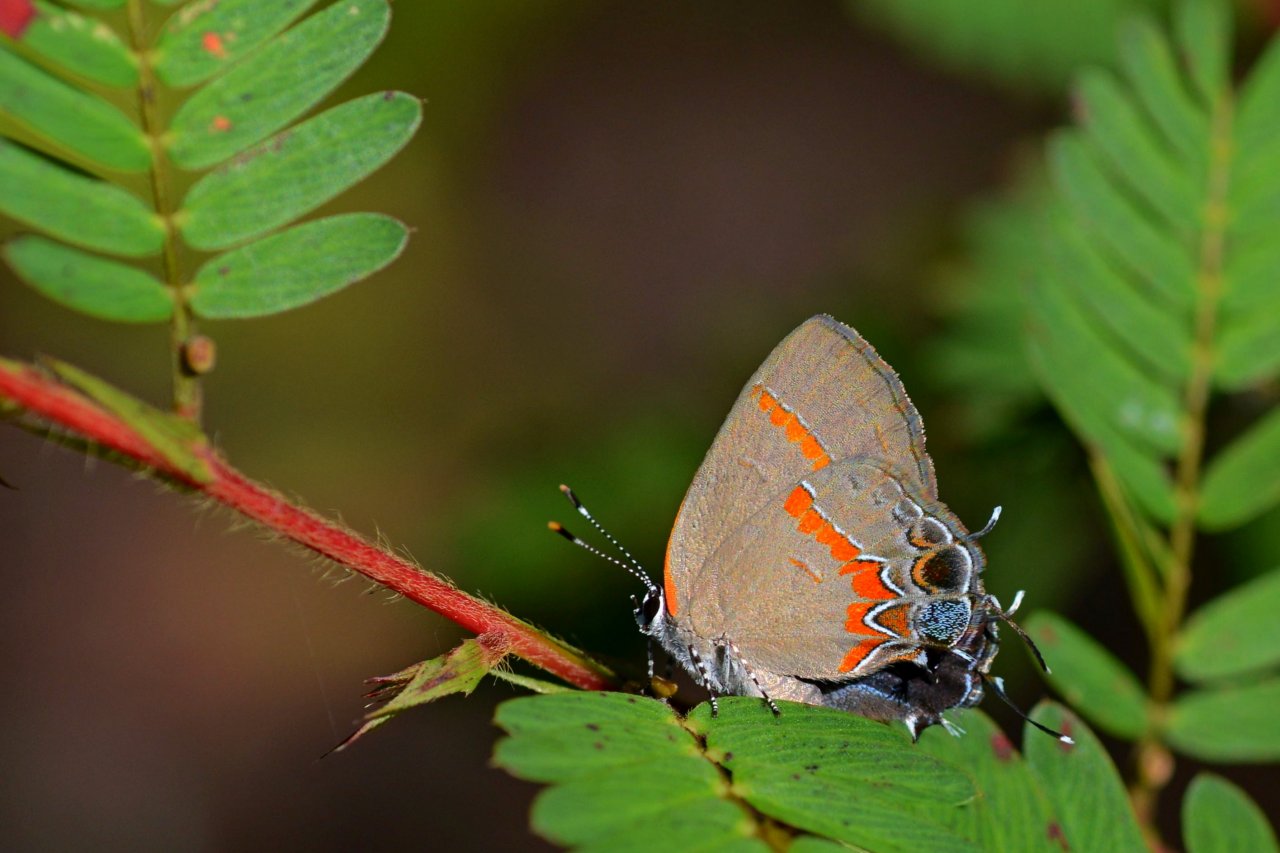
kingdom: Animalia
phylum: Arthropoda
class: Insecta
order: Lepidoptera
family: Lycaenidae
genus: Calycopis
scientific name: Calycopis cecrops
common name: Red-banded Hairstreak
